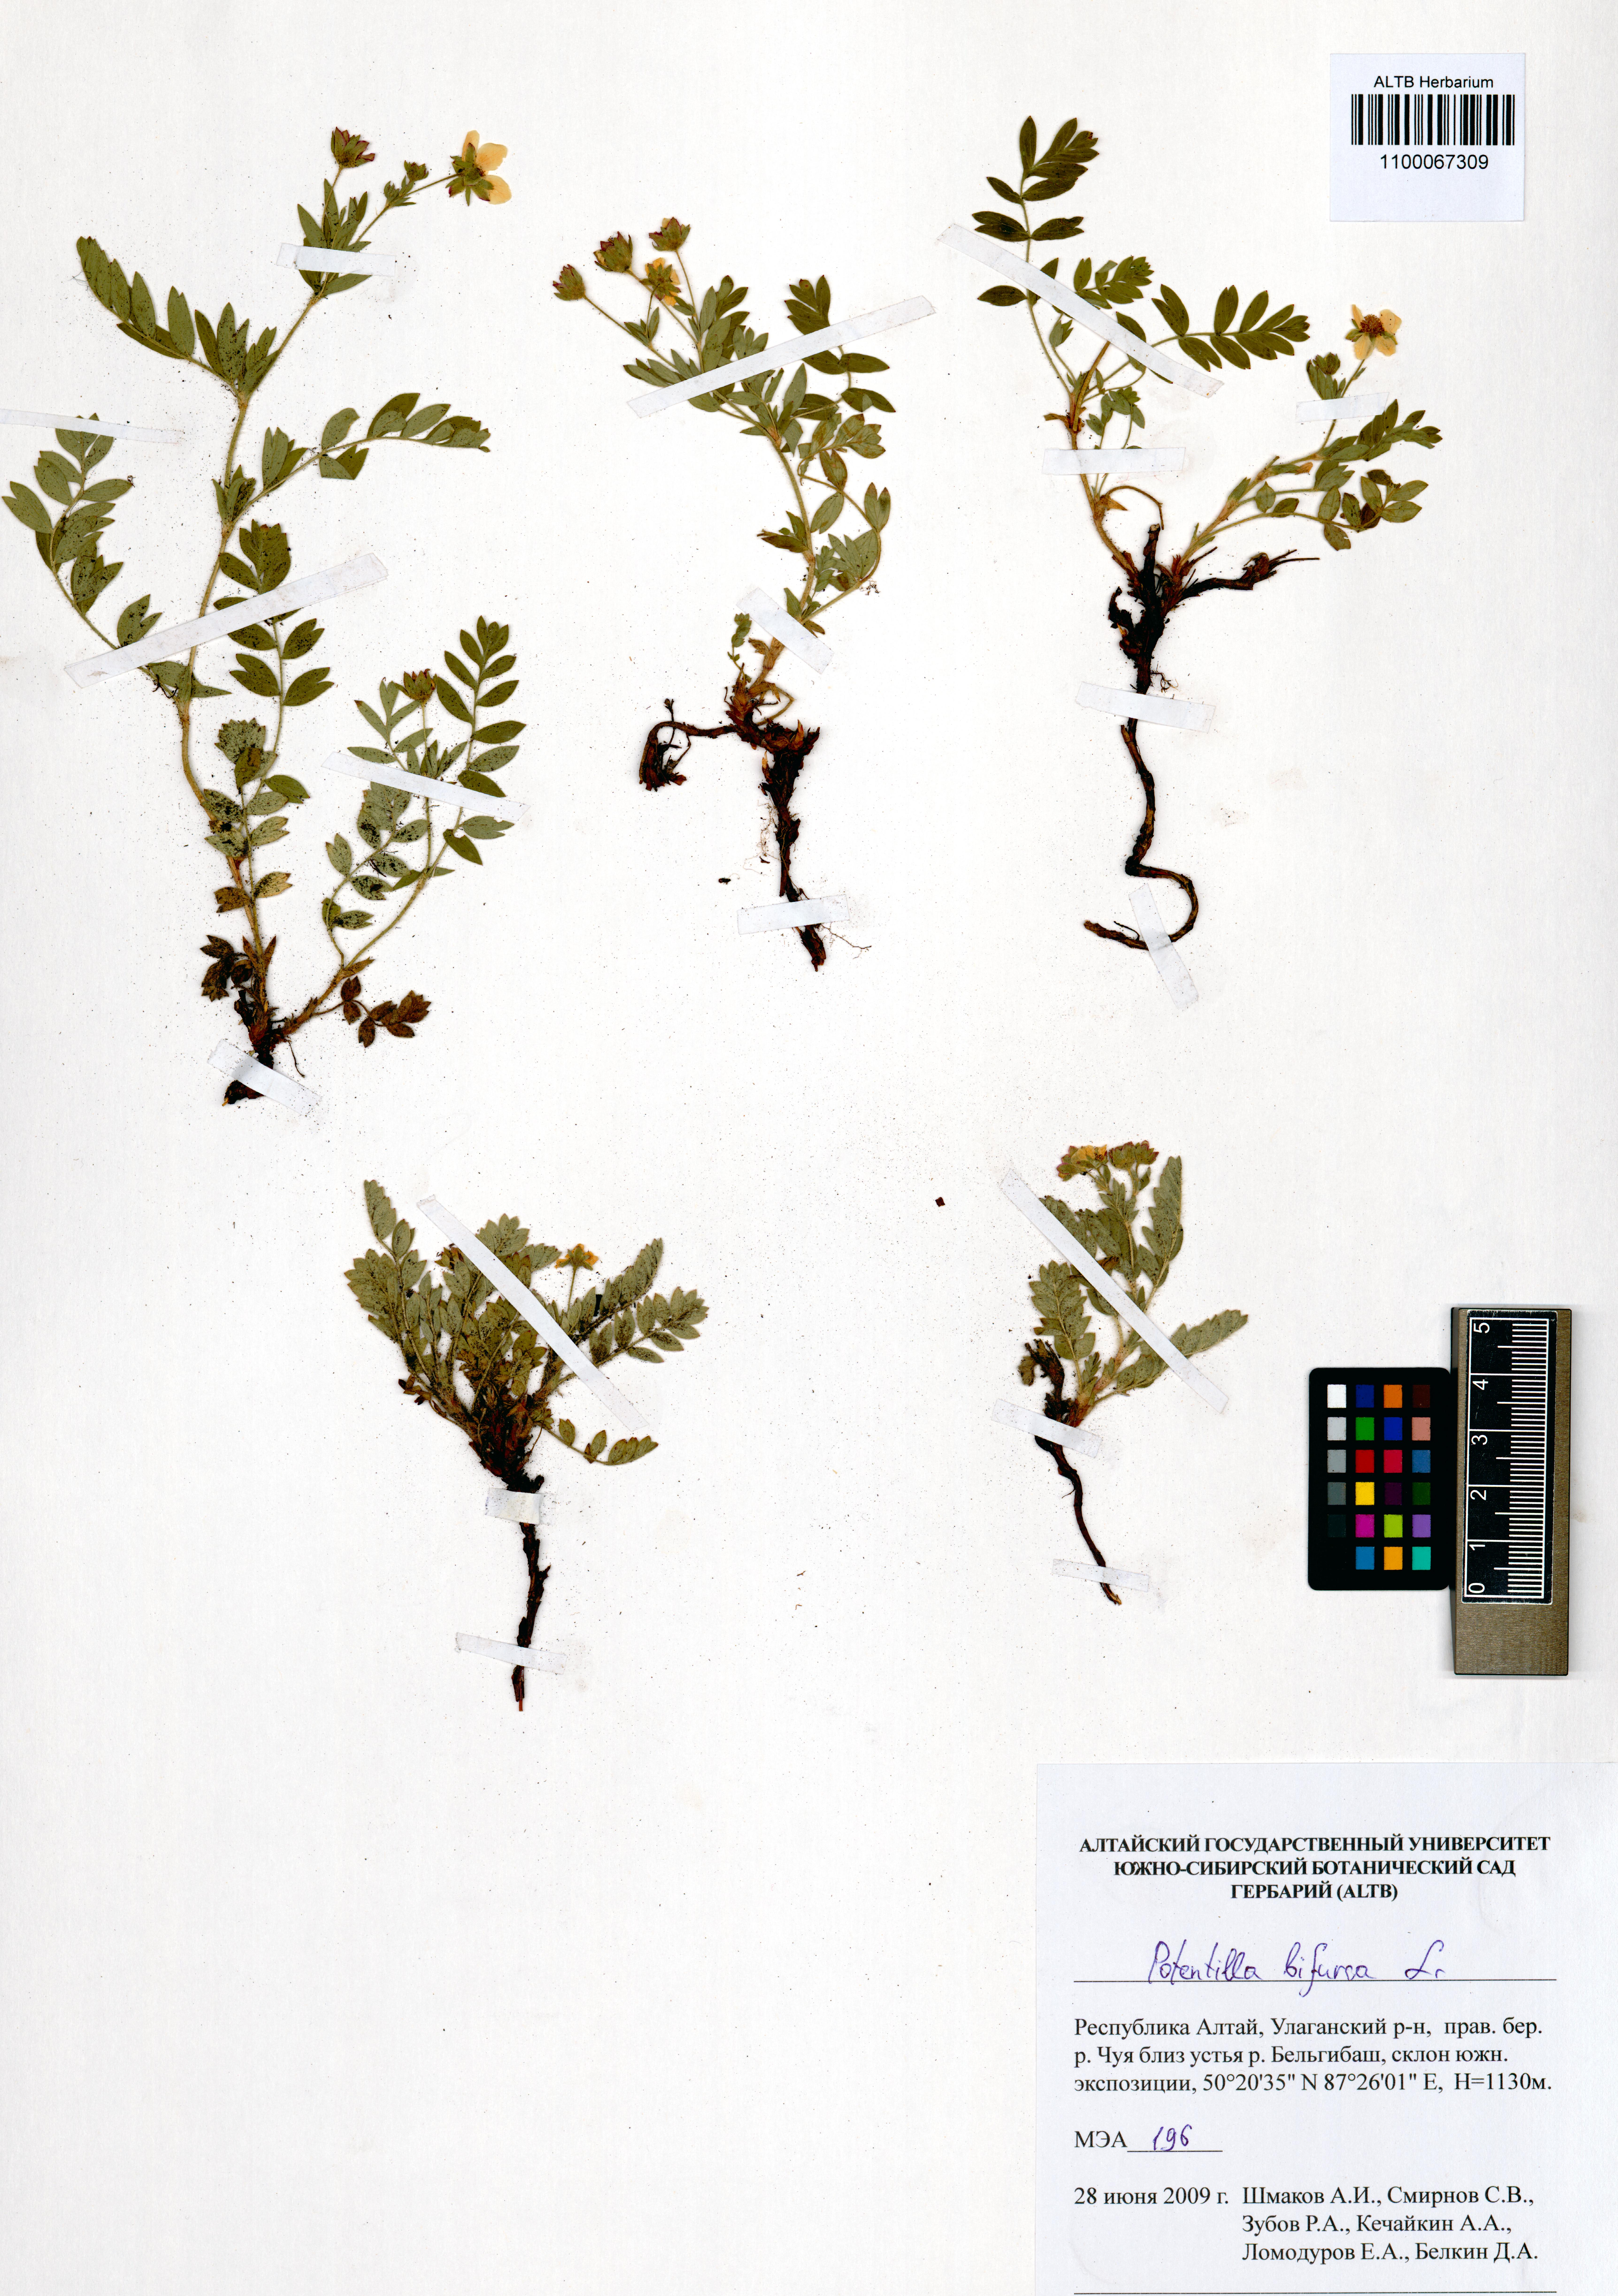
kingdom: Plantae
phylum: Tracheophyta
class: Magnoliopsida
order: Rosales
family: Rosaceae
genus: Sibbaldianthe
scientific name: Sibbaldianthe bifurca
